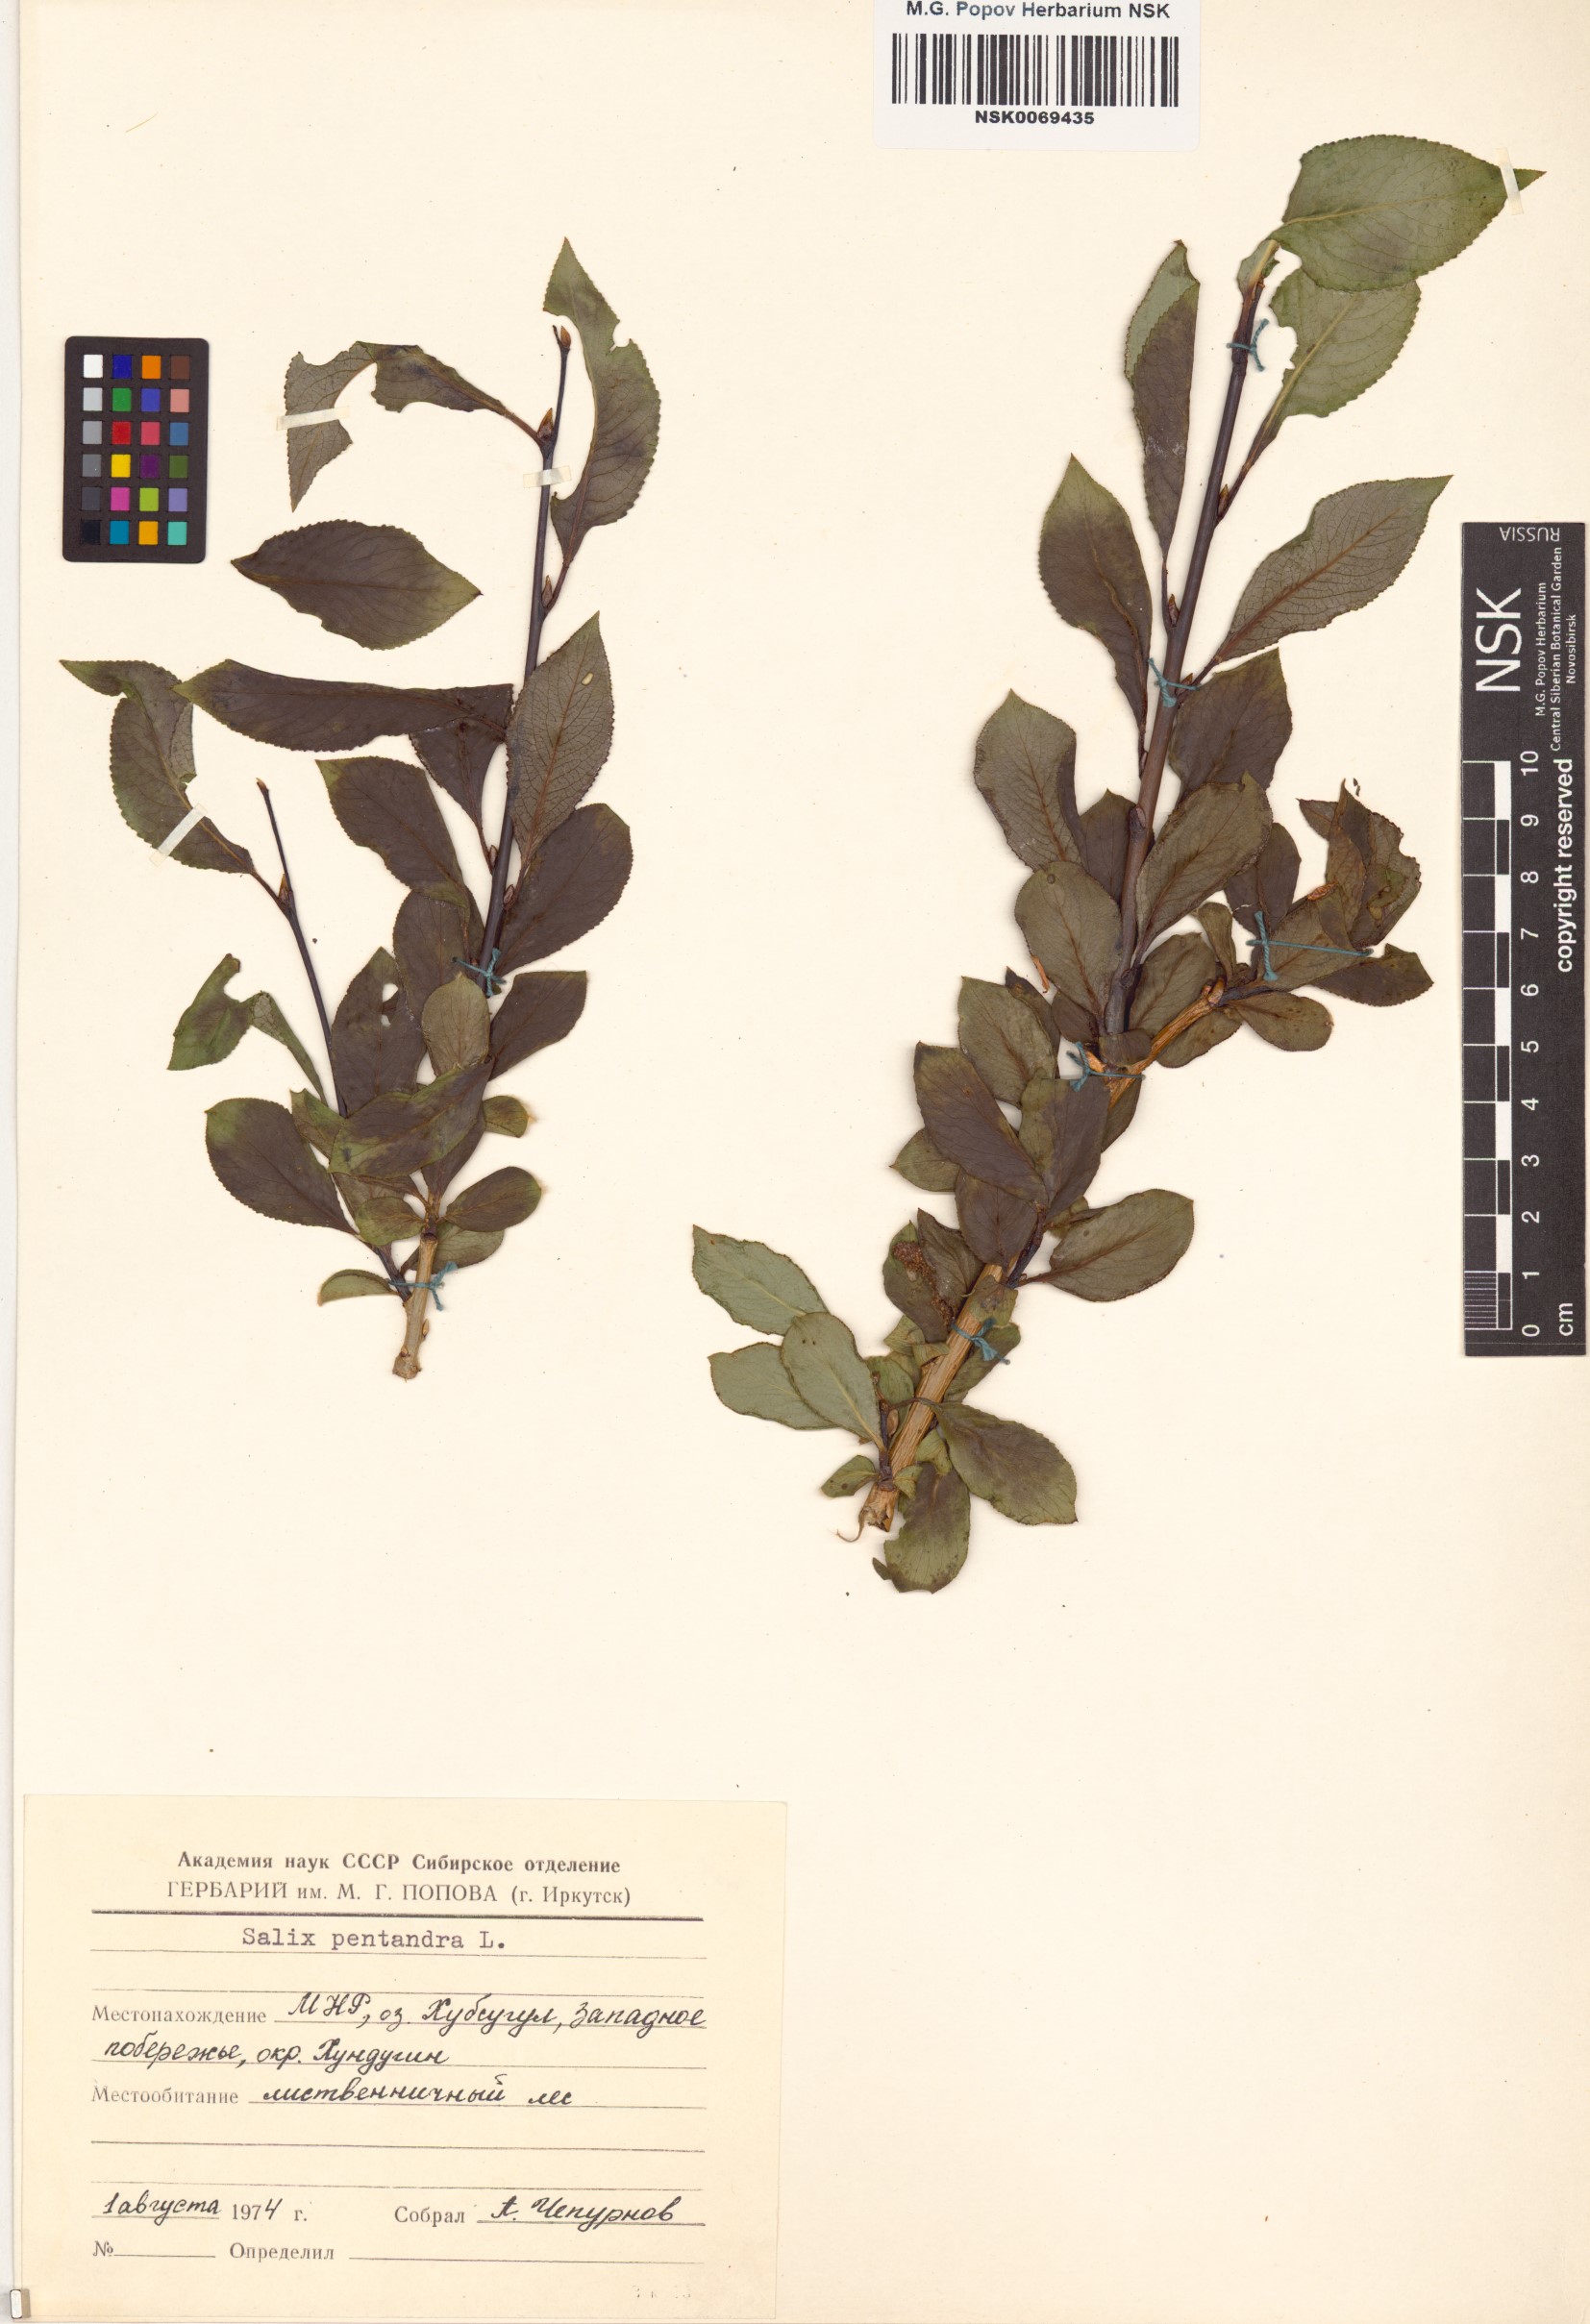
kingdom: Plantae
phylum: Tracheophyta
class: Magnoliopsida
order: Malpighiales
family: Salicaceae
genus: Salix
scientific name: Salix pseudopentandra
